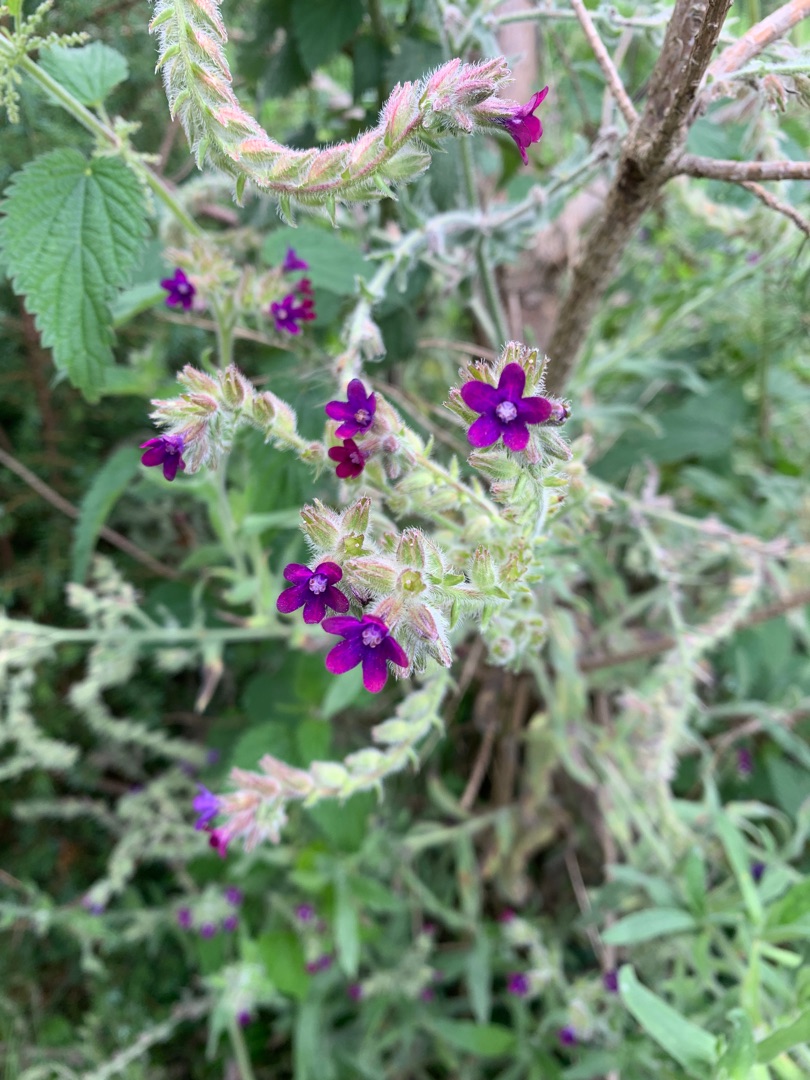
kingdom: Plantae
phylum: Tracheophyta
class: Magnoliopsida
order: Boraginales
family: Boraginaceae
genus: Anchusa
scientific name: Anchusa officinalis
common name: Læge-oksetunge
